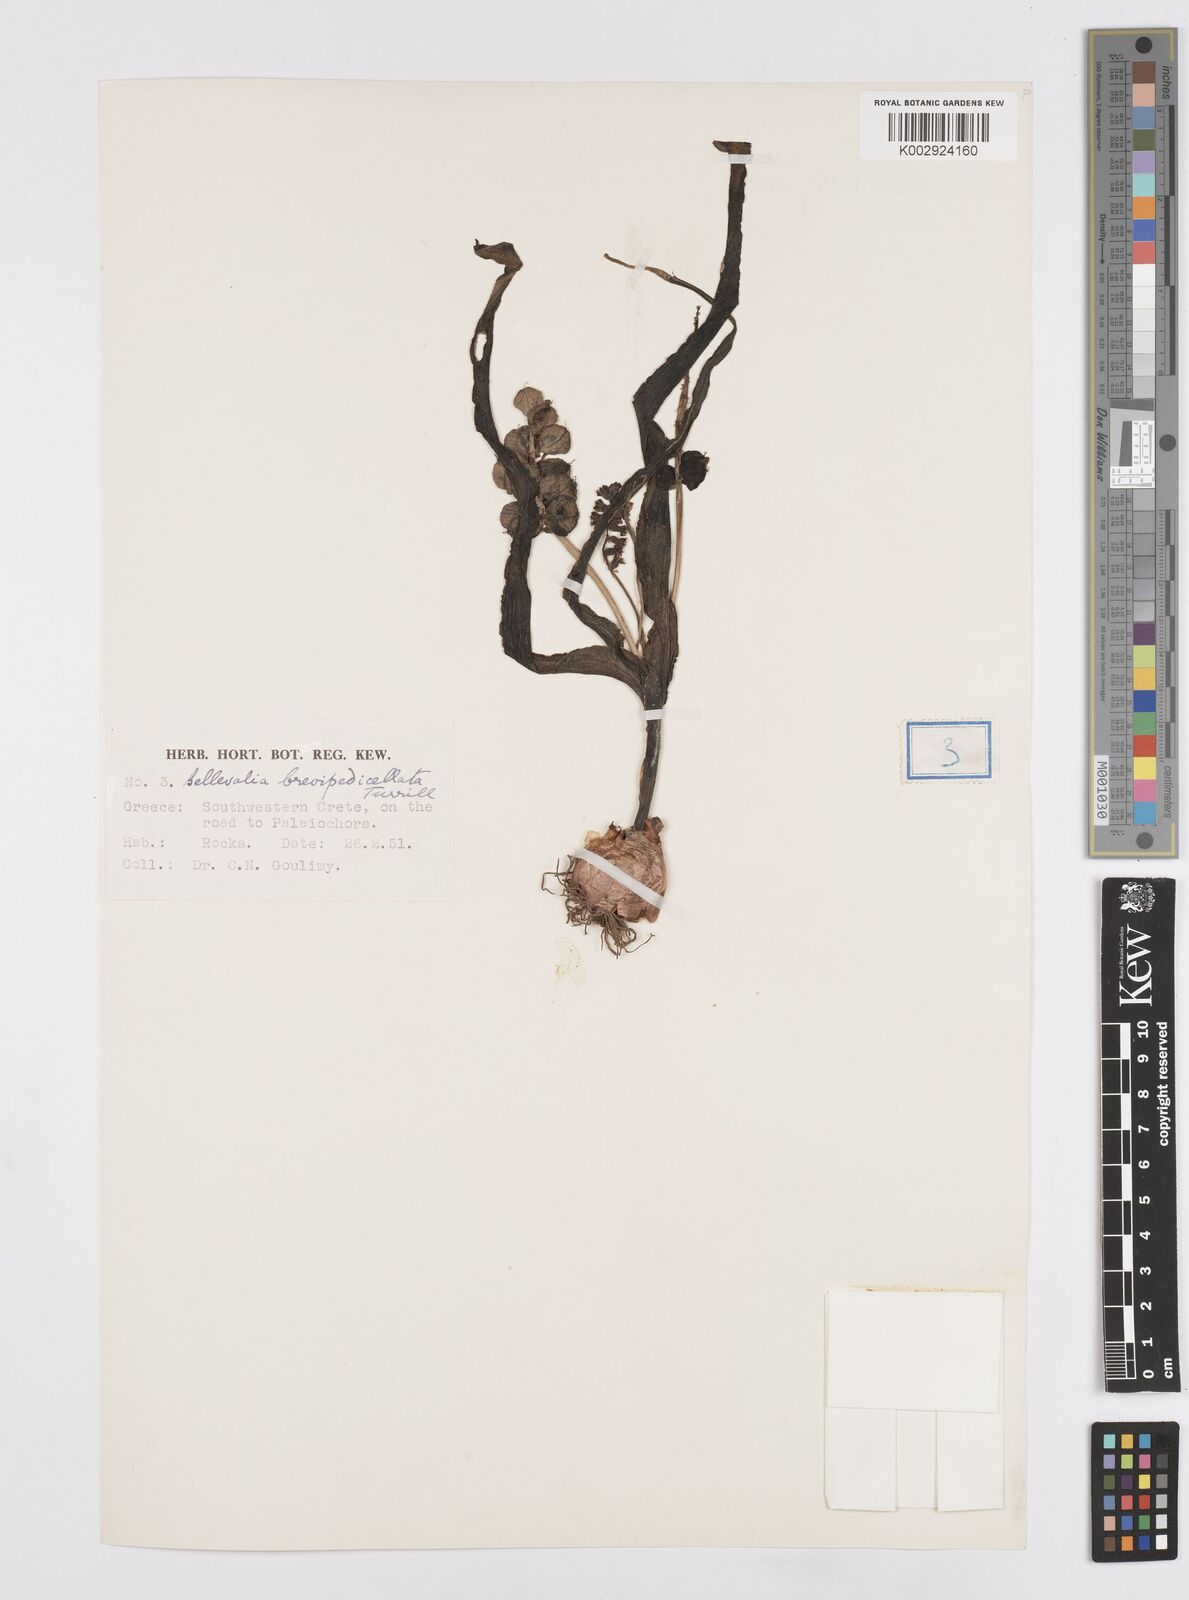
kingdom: Plantae
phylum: Tracheophyta
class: Liliopsida
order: Asparagales
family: Asparagaceae
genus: Bellevalia
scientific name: Bellevalia brevipedicellata
